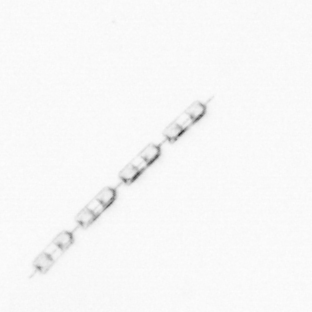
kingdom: Chromista
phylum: Ochrophyta
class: Bacillariophyceae
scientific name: Bacillariophyceae
